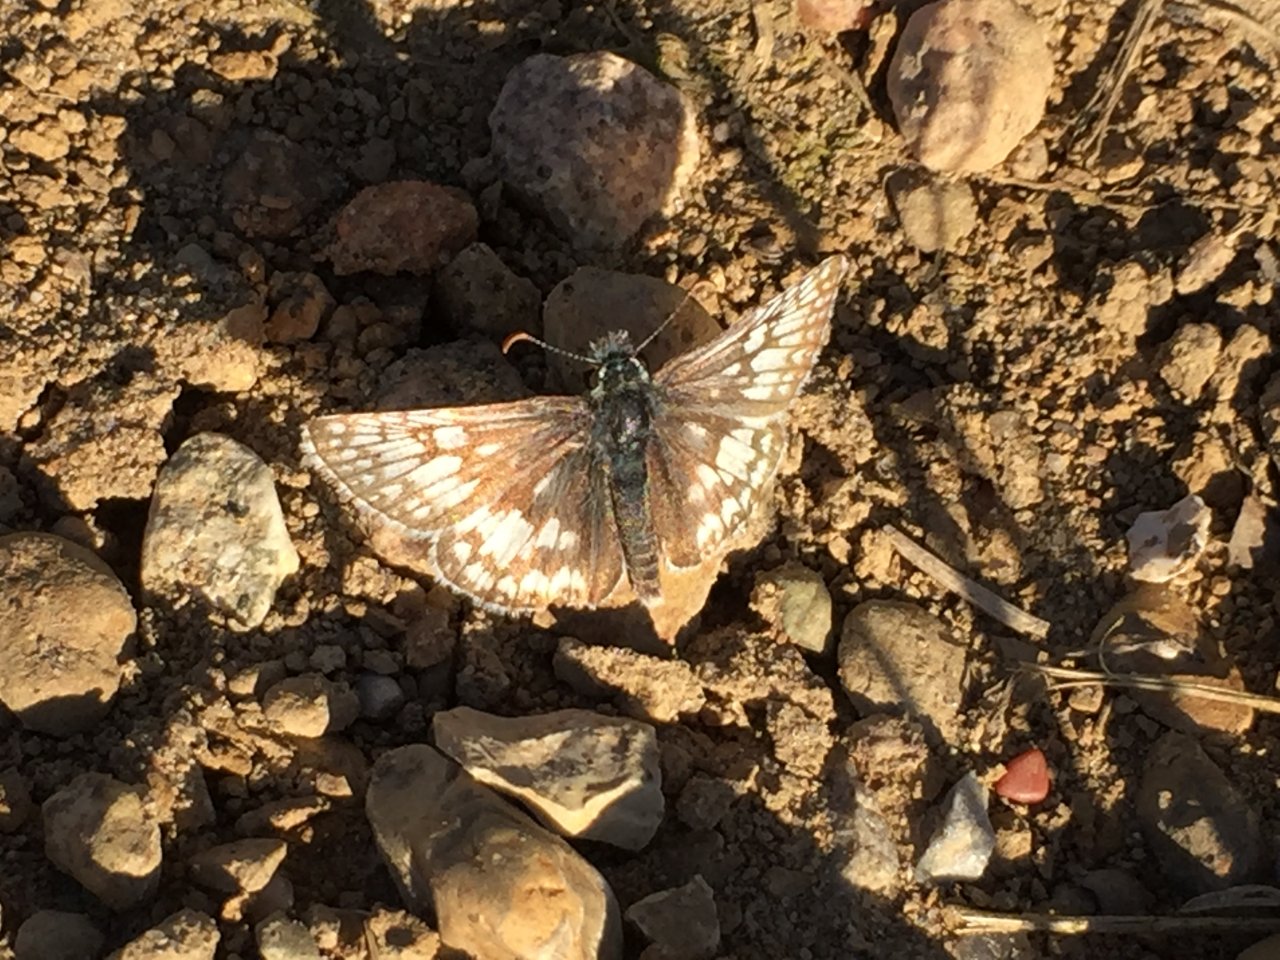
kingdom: Animalia
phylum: Arthropoda
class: Insecta
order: Lepidoptera
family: Hesperiidae
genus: Pyrgus
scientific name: Pyrgus communis
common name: Common Checkered-Skipper
